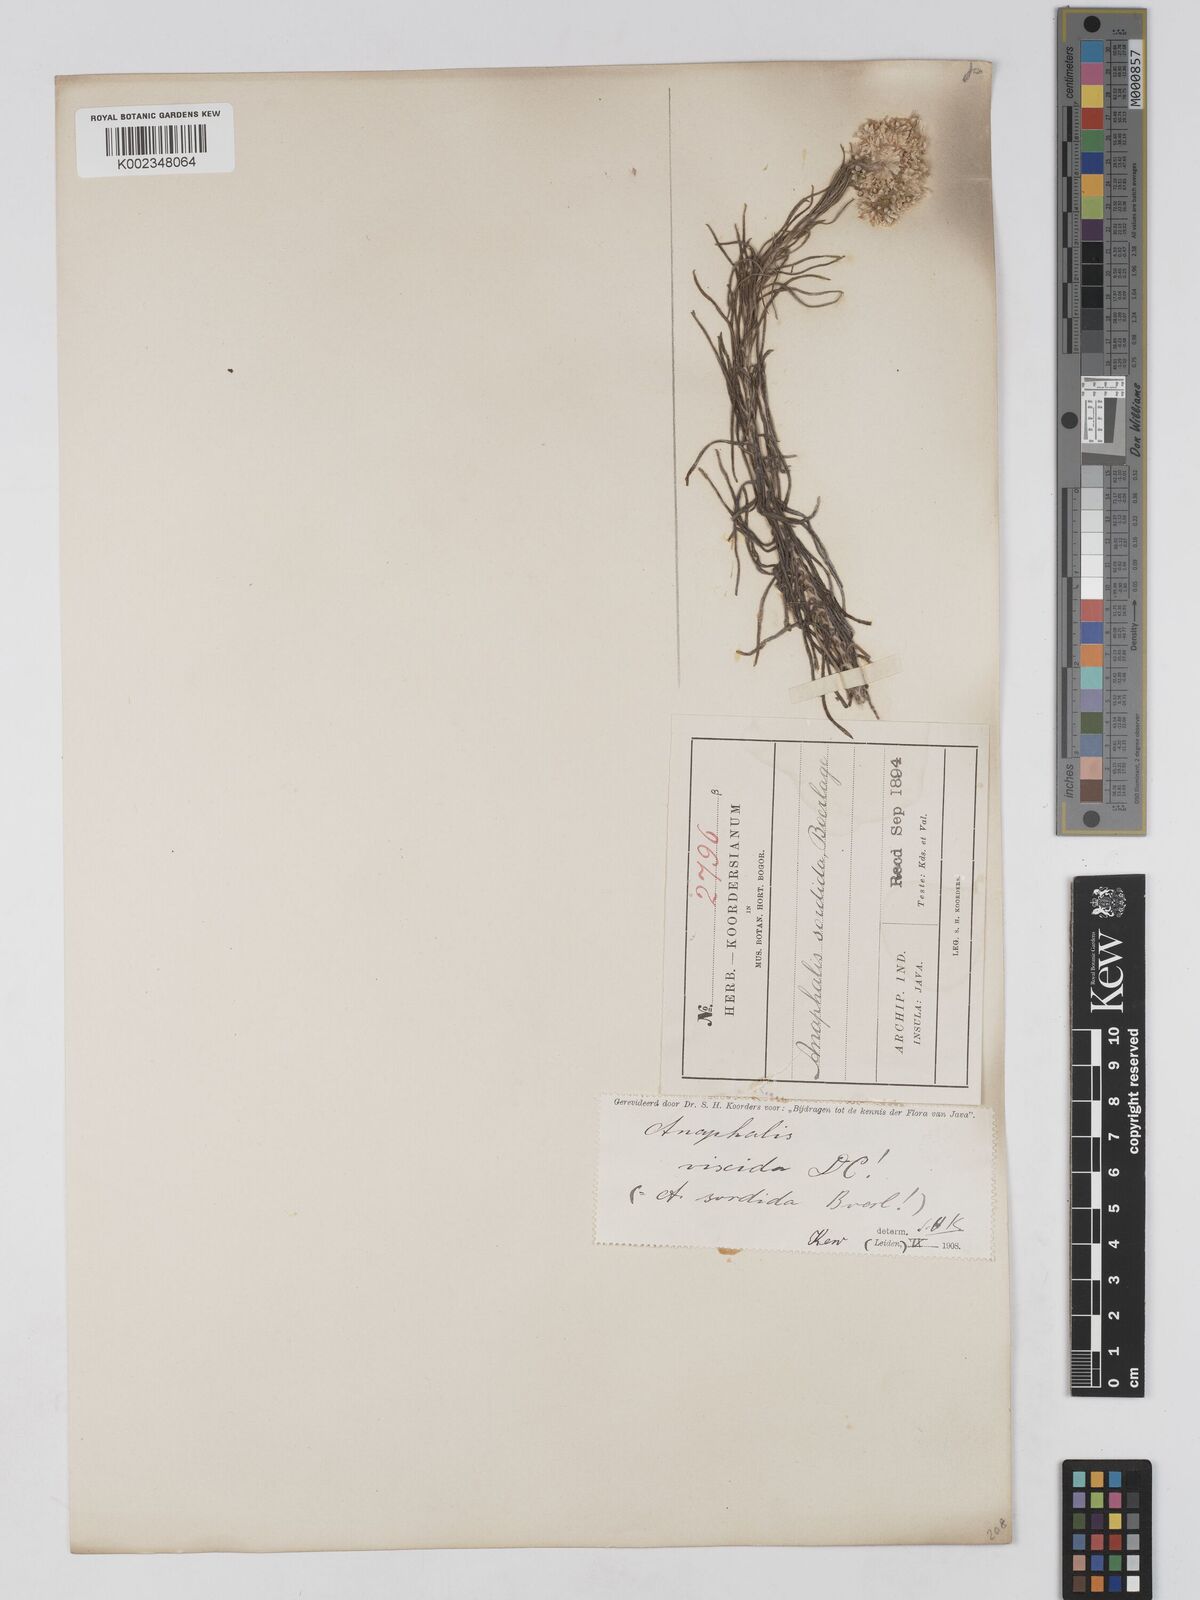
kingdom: Plantae
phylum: Tracheophyta
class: Magnoliopsida
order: Asterales
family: Asteraceae
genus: Anaphalis
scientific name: Anaphalis viscida
